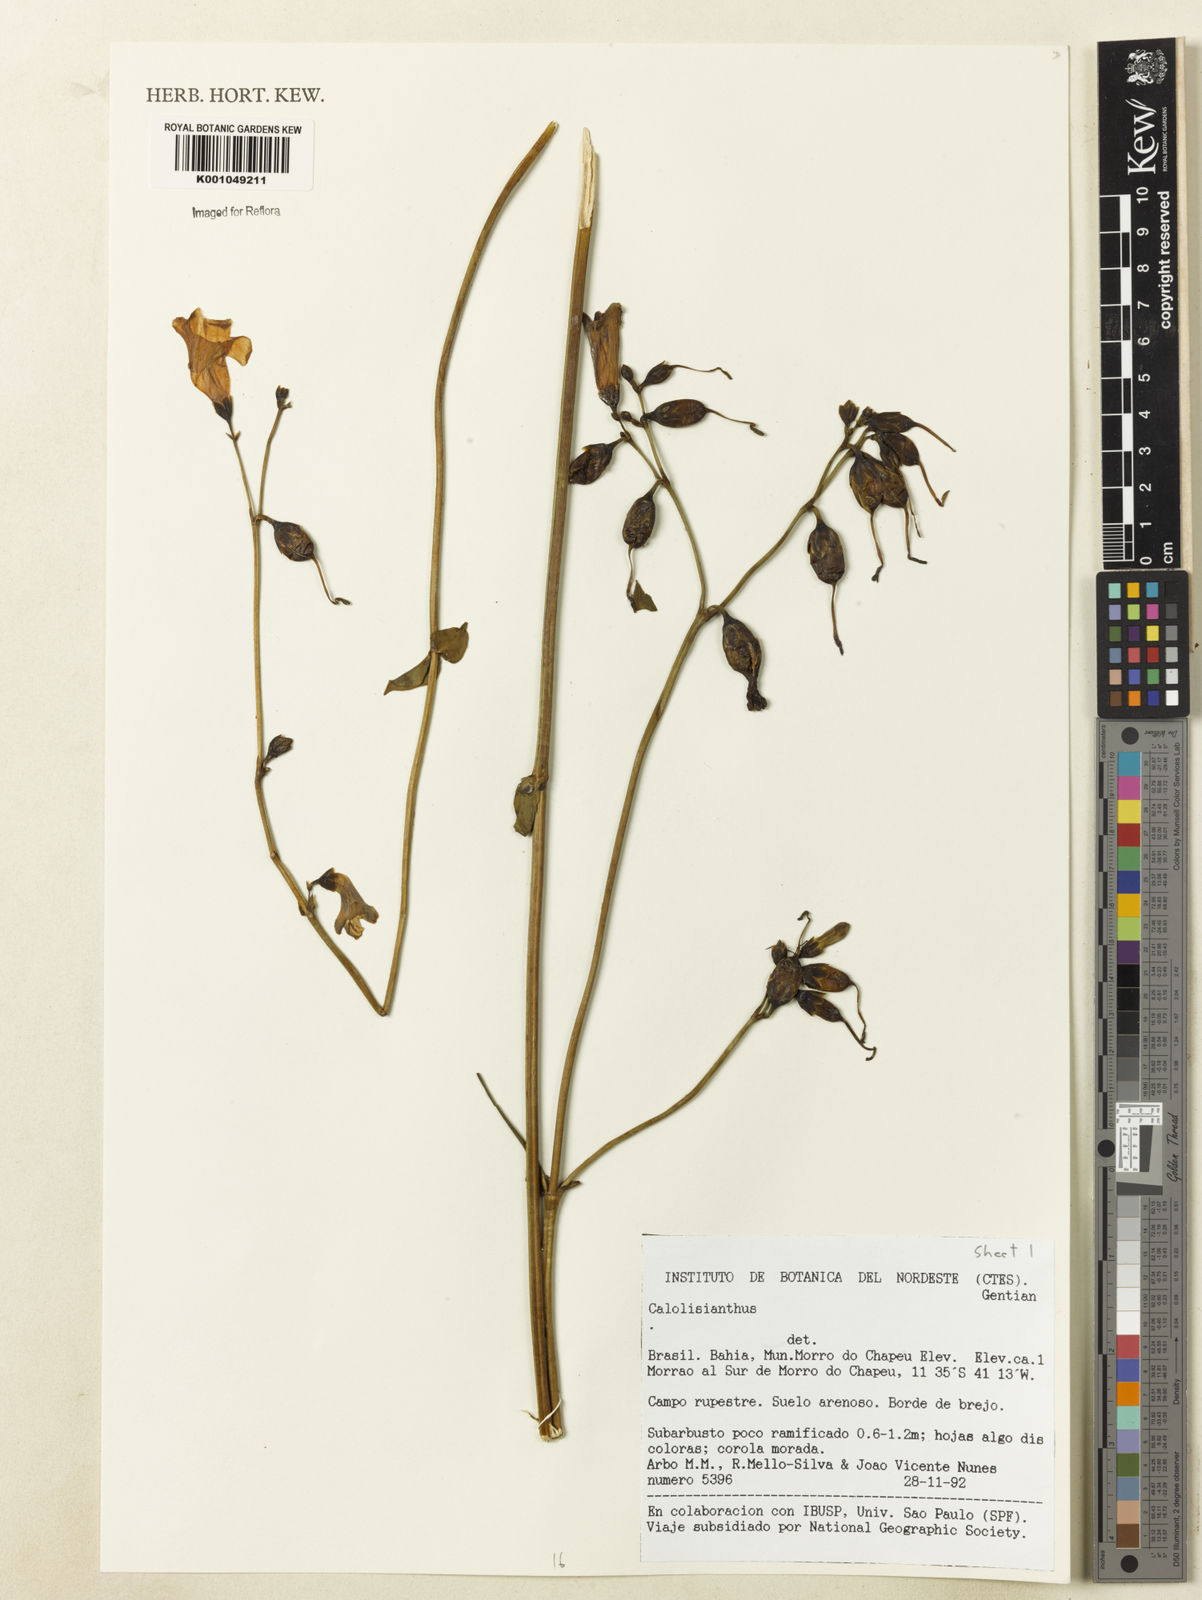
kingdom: Plantae
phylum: Tracheophyta
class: Magnoliopsida
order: Gentianales
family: Gentianaceae
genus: Irlbachia
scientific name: Irlbachia
